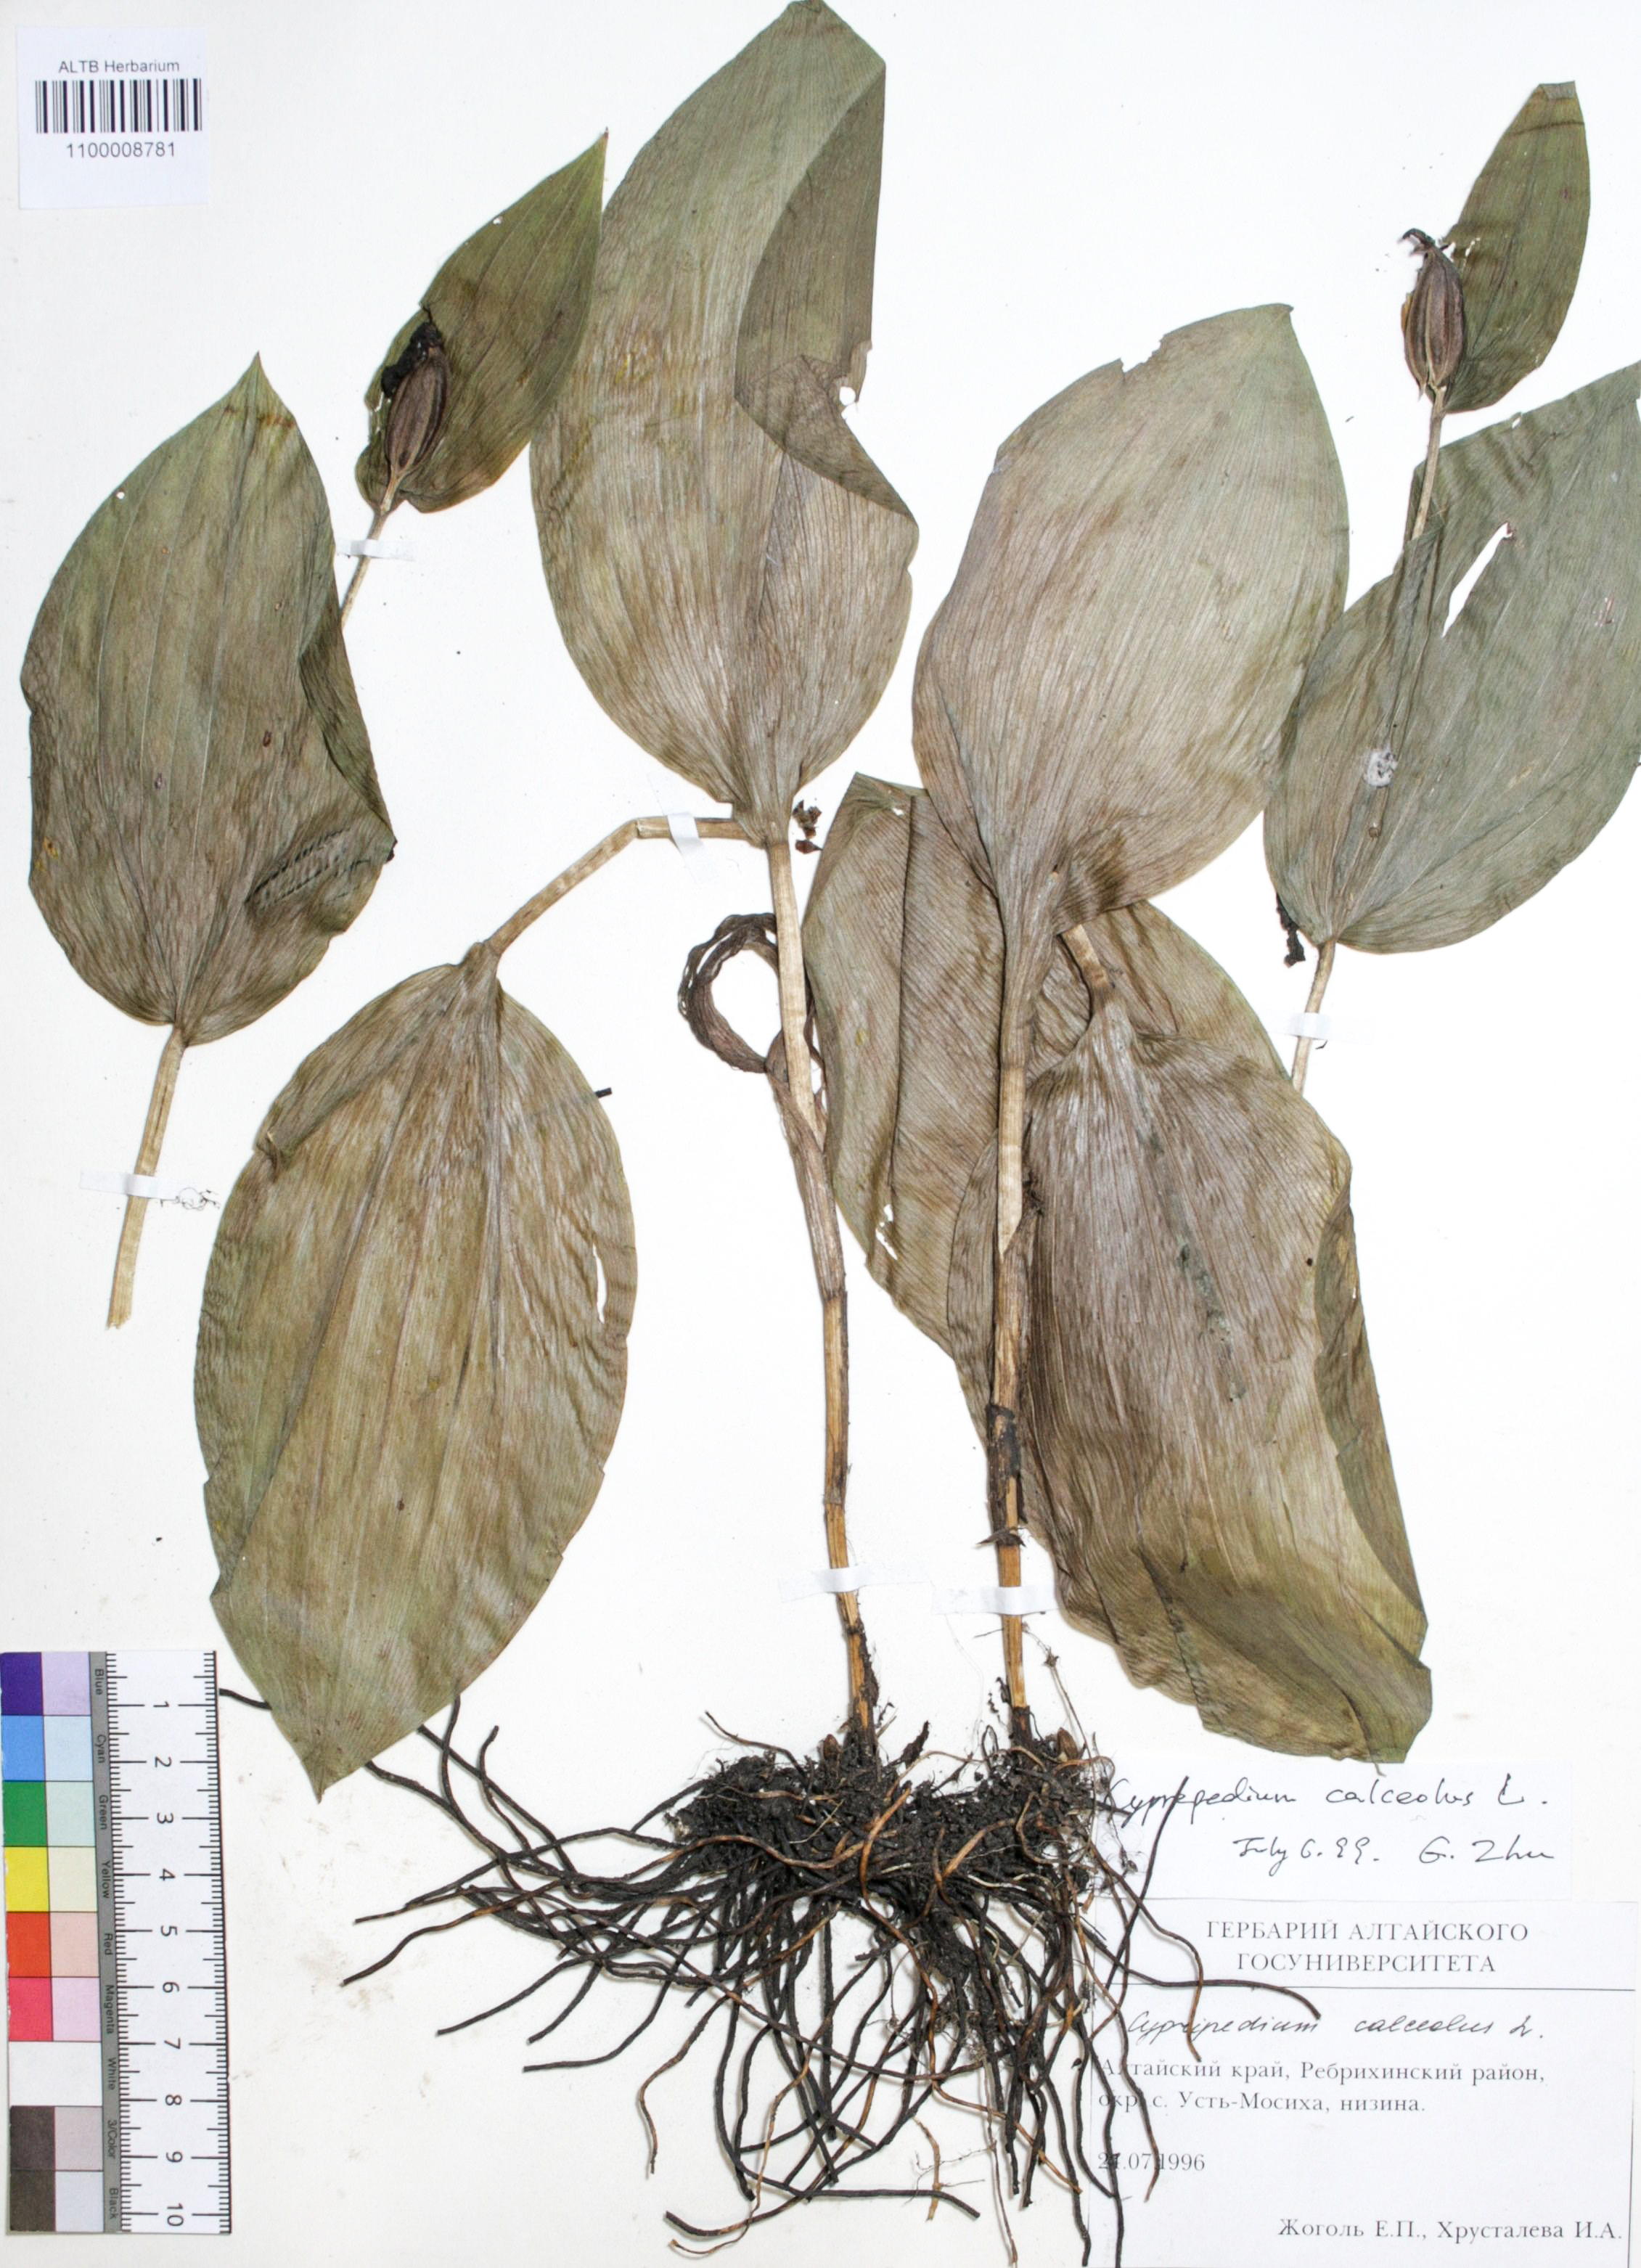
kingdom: Plantae
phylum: Tracheophyta
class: Liliopsida
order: Asparagales
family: Orchidaceae
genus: Cypripedium
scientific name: Cypripedium calceolus
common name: Lady's-slipper
